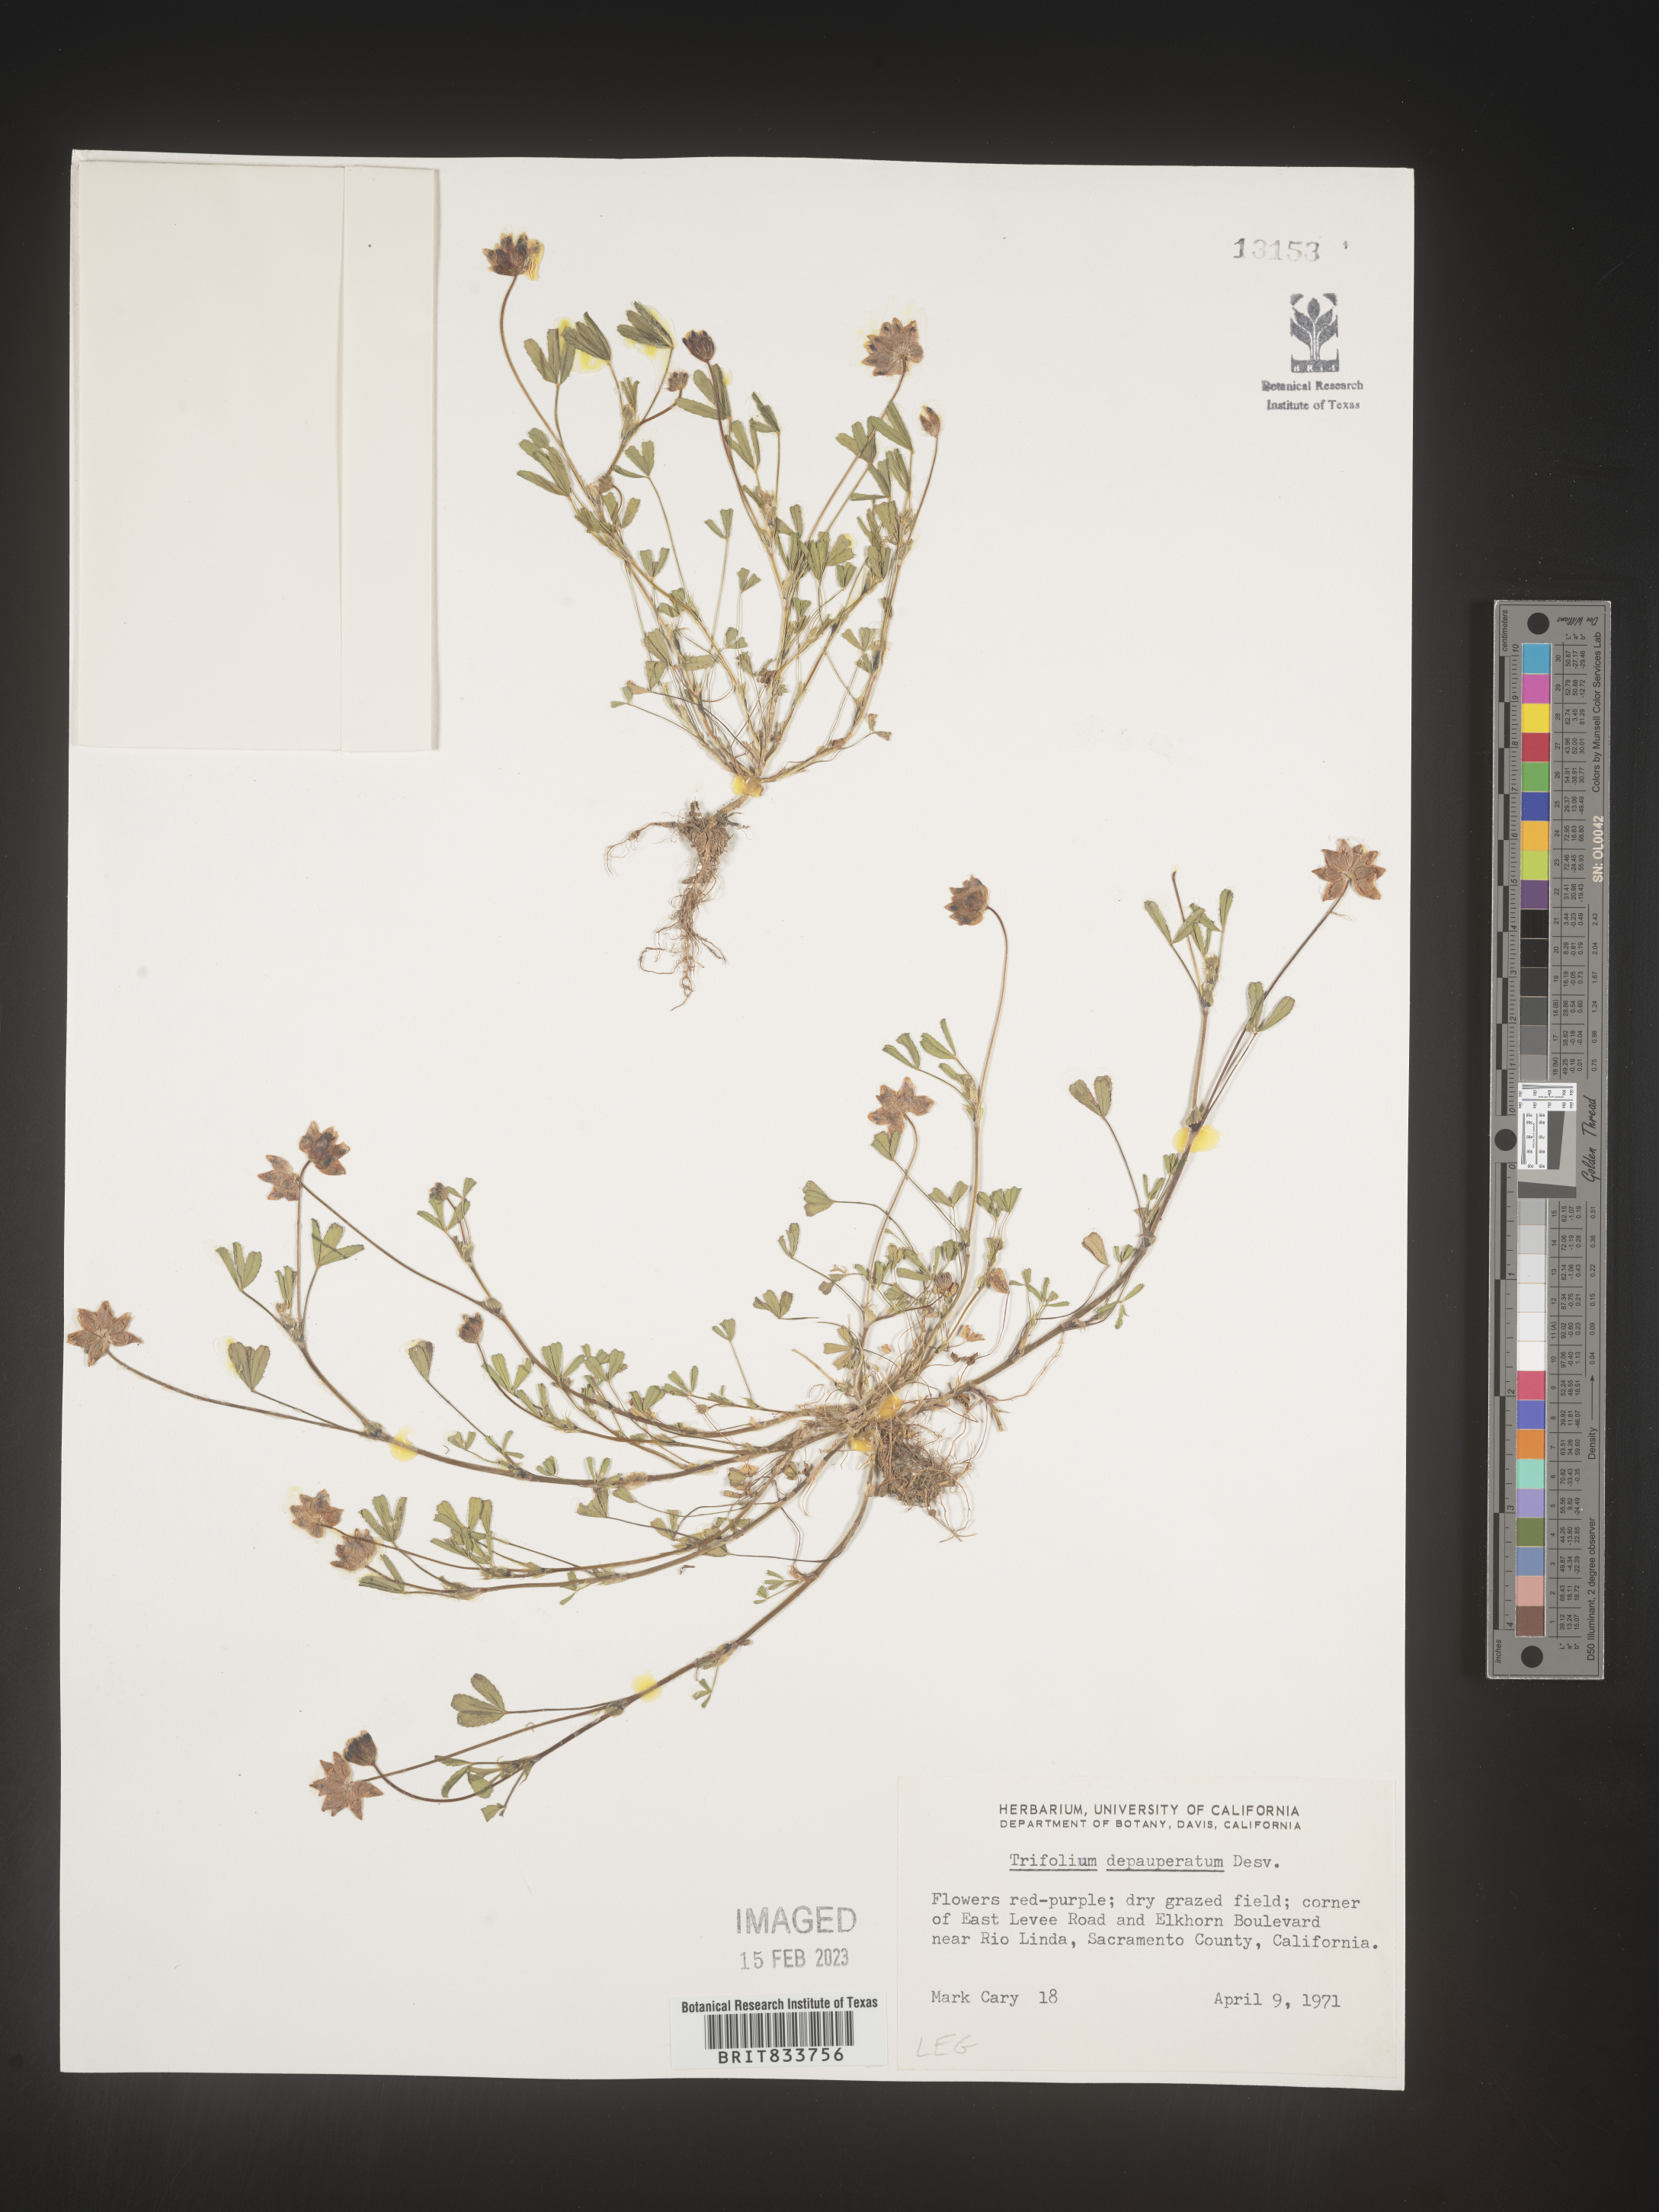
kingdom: Plantae
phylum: Tracheophyta
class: Magnoliopsida
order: Fabales
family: Fabaceae
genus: Trifolium
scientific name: Trifolium
